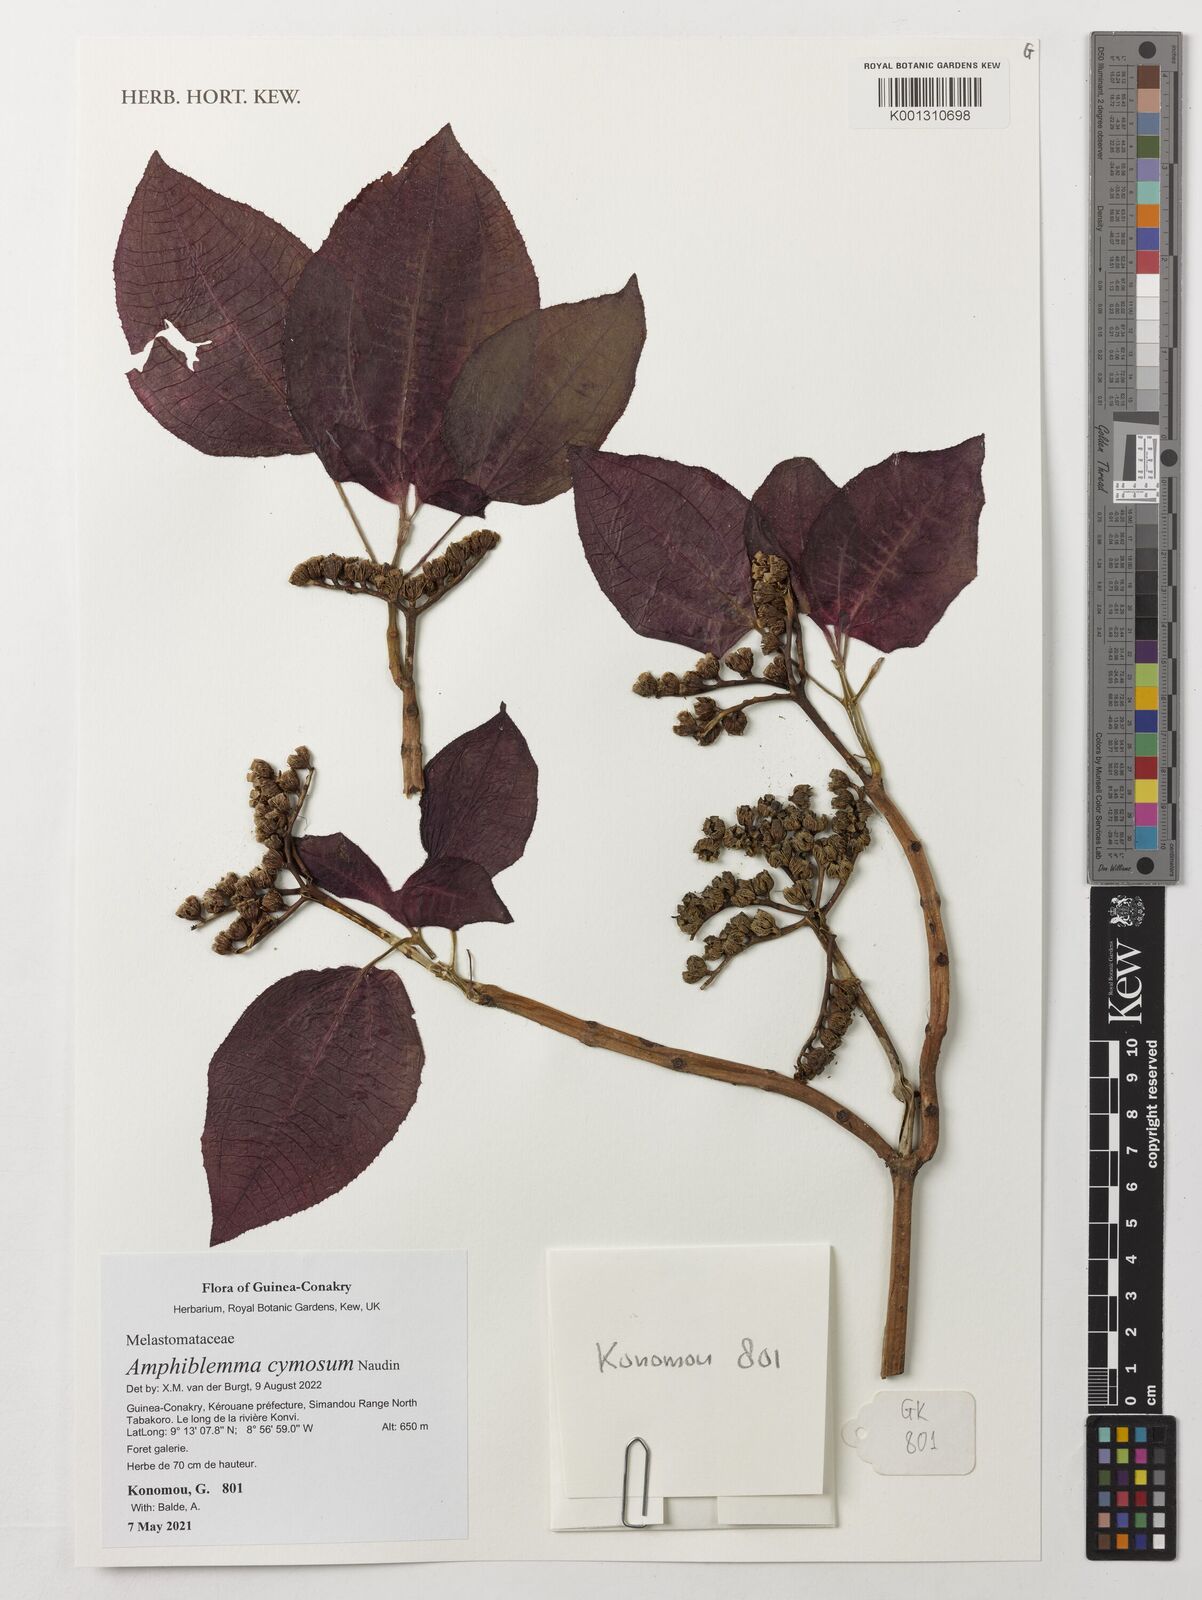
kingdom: Plantae
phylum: Tracheophyta
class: Magnoliopsida
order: Myrtales
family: Melastomataceae
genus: Amphiblemma
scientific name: Amphiblemma cymosum
